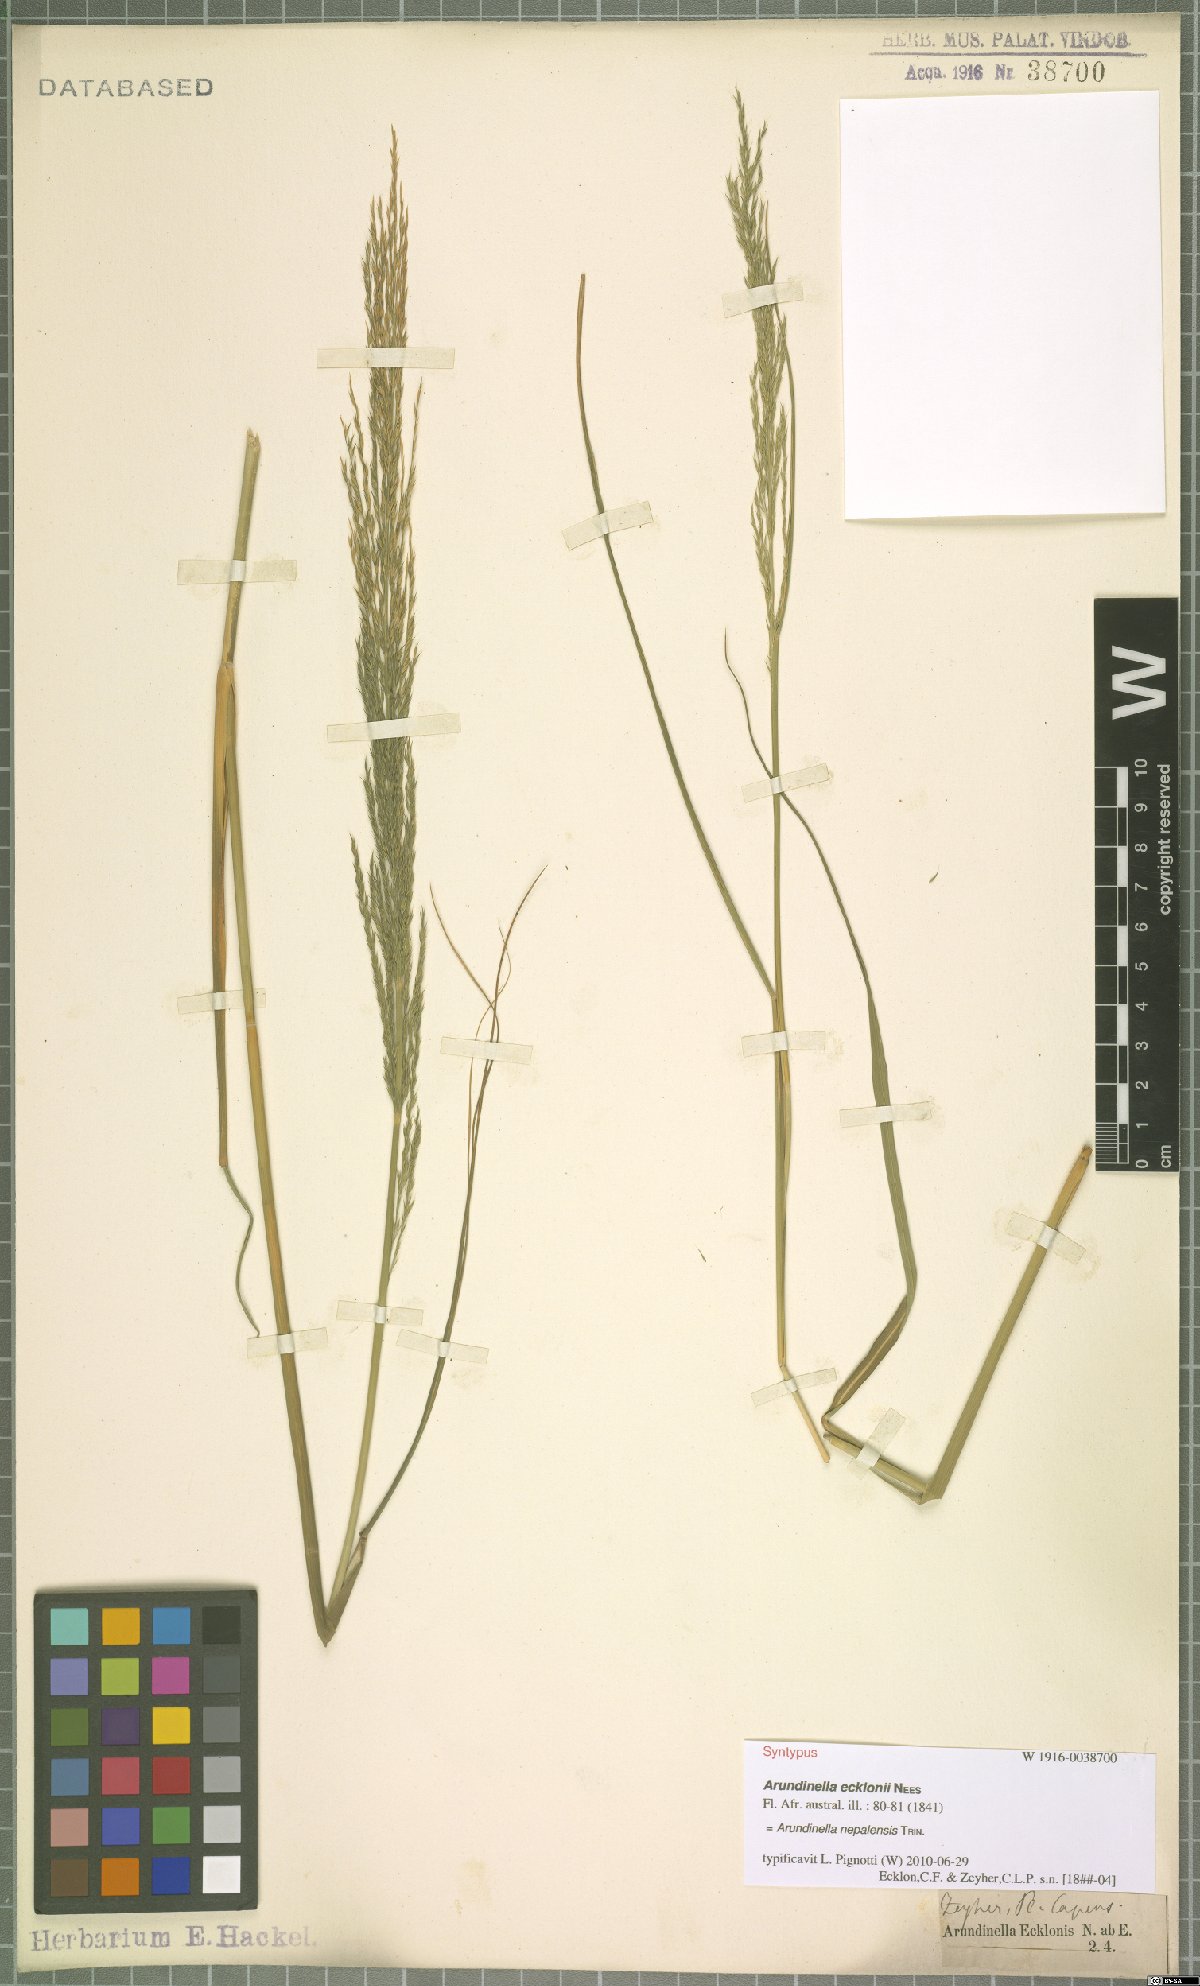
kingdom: Plantae
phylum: Tracheophyta
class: Liliopsida
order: Poales
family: Poaceae
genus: Arundinella
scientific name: Arundinella nepalensis
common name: Reed grass
